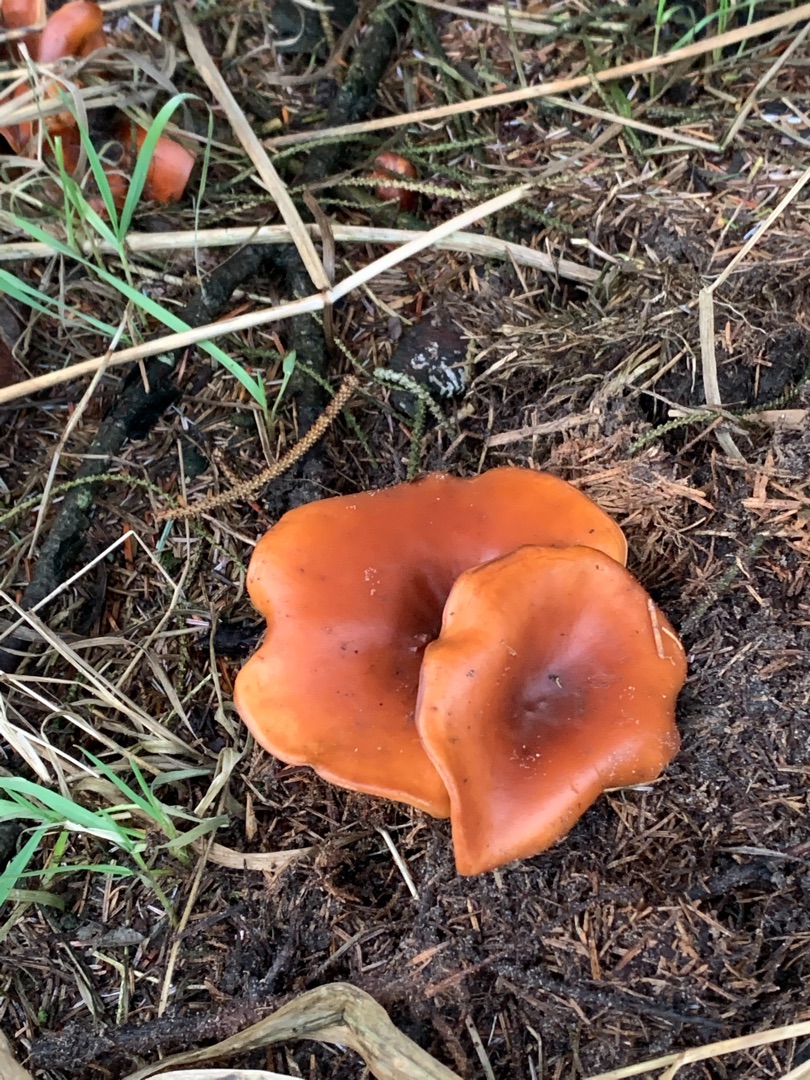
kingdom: Fungi
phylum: Basidiomycota
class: Agaricomycetes
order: Agaricales
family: Tricholomataceae
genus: Paralepista
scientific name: Paralepista flaccida
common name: Brunstænket hekseringshat
